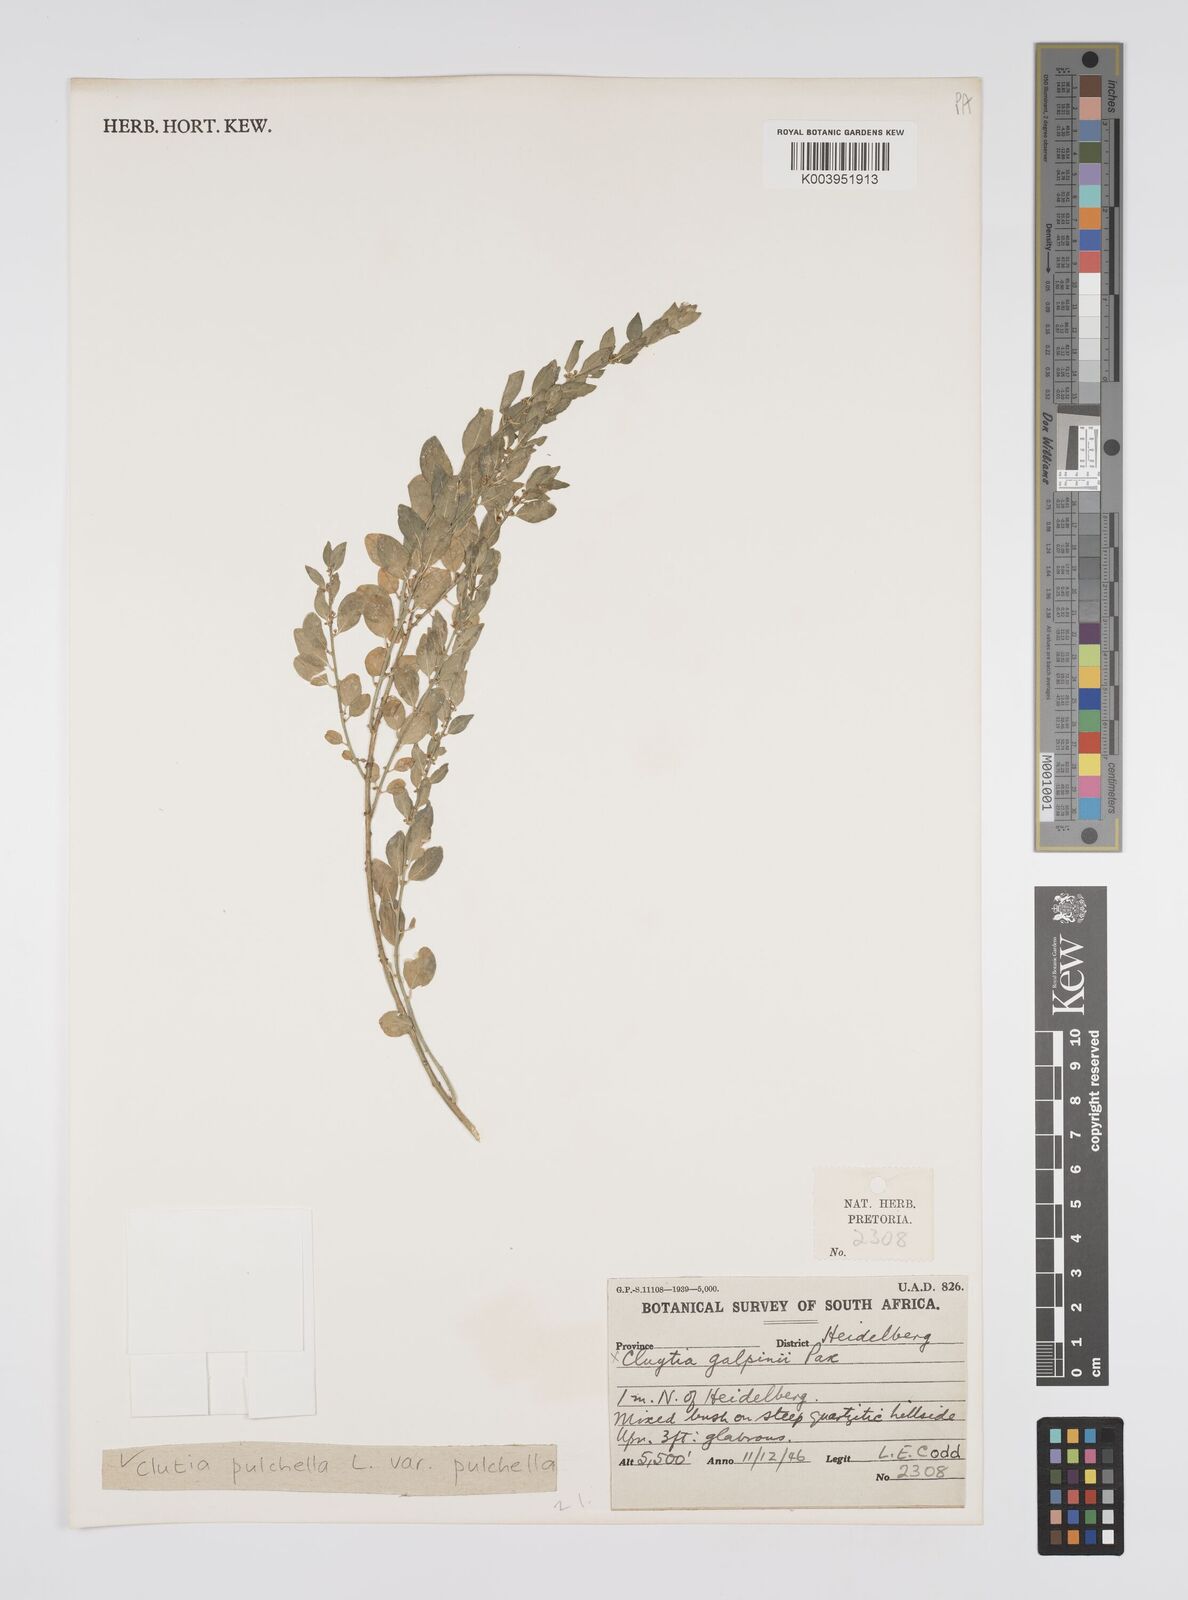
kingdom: Plantae
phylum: Tracheophyta
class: Magnoliopsida
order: Malpighiales
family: Peraceae
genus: Clutia
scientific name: Clutia galpinii
